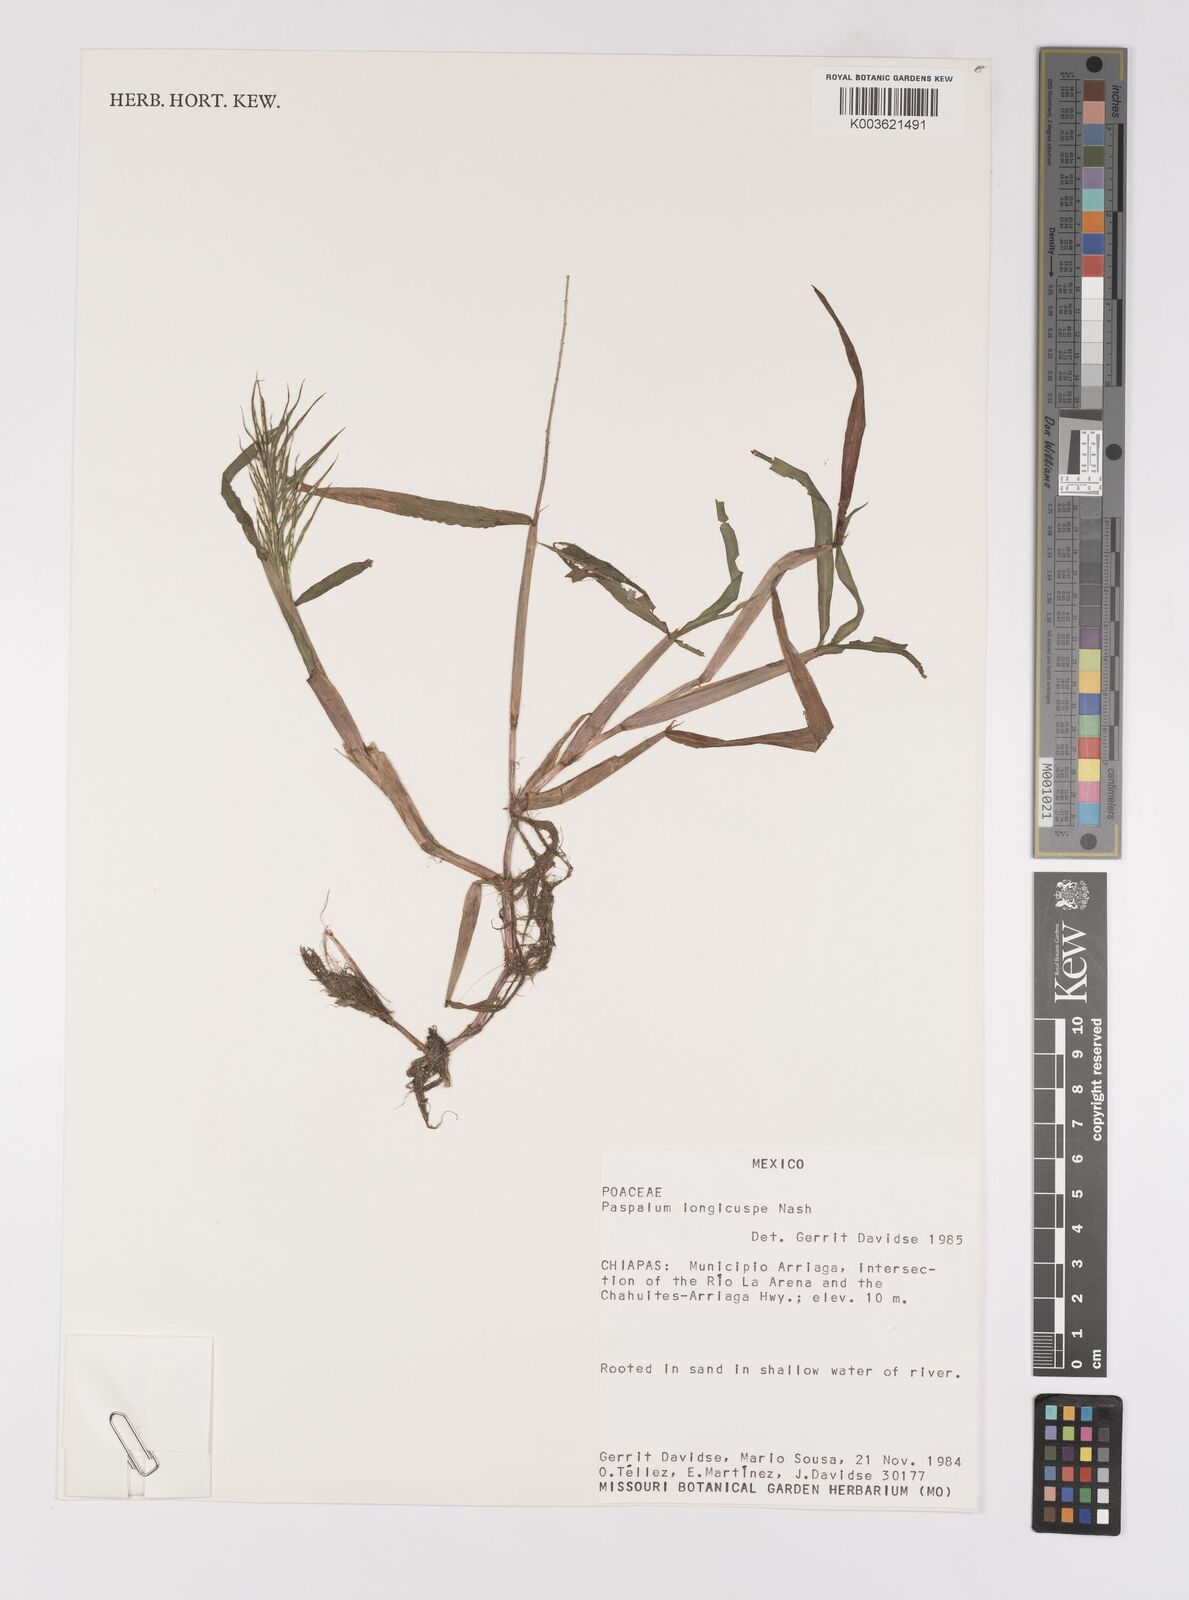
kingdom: Plantae
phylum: Tracheophyta
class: Liliopsida
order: Poales
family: Poaceae
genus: Paspalum
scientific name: Paspalum longicuspe
